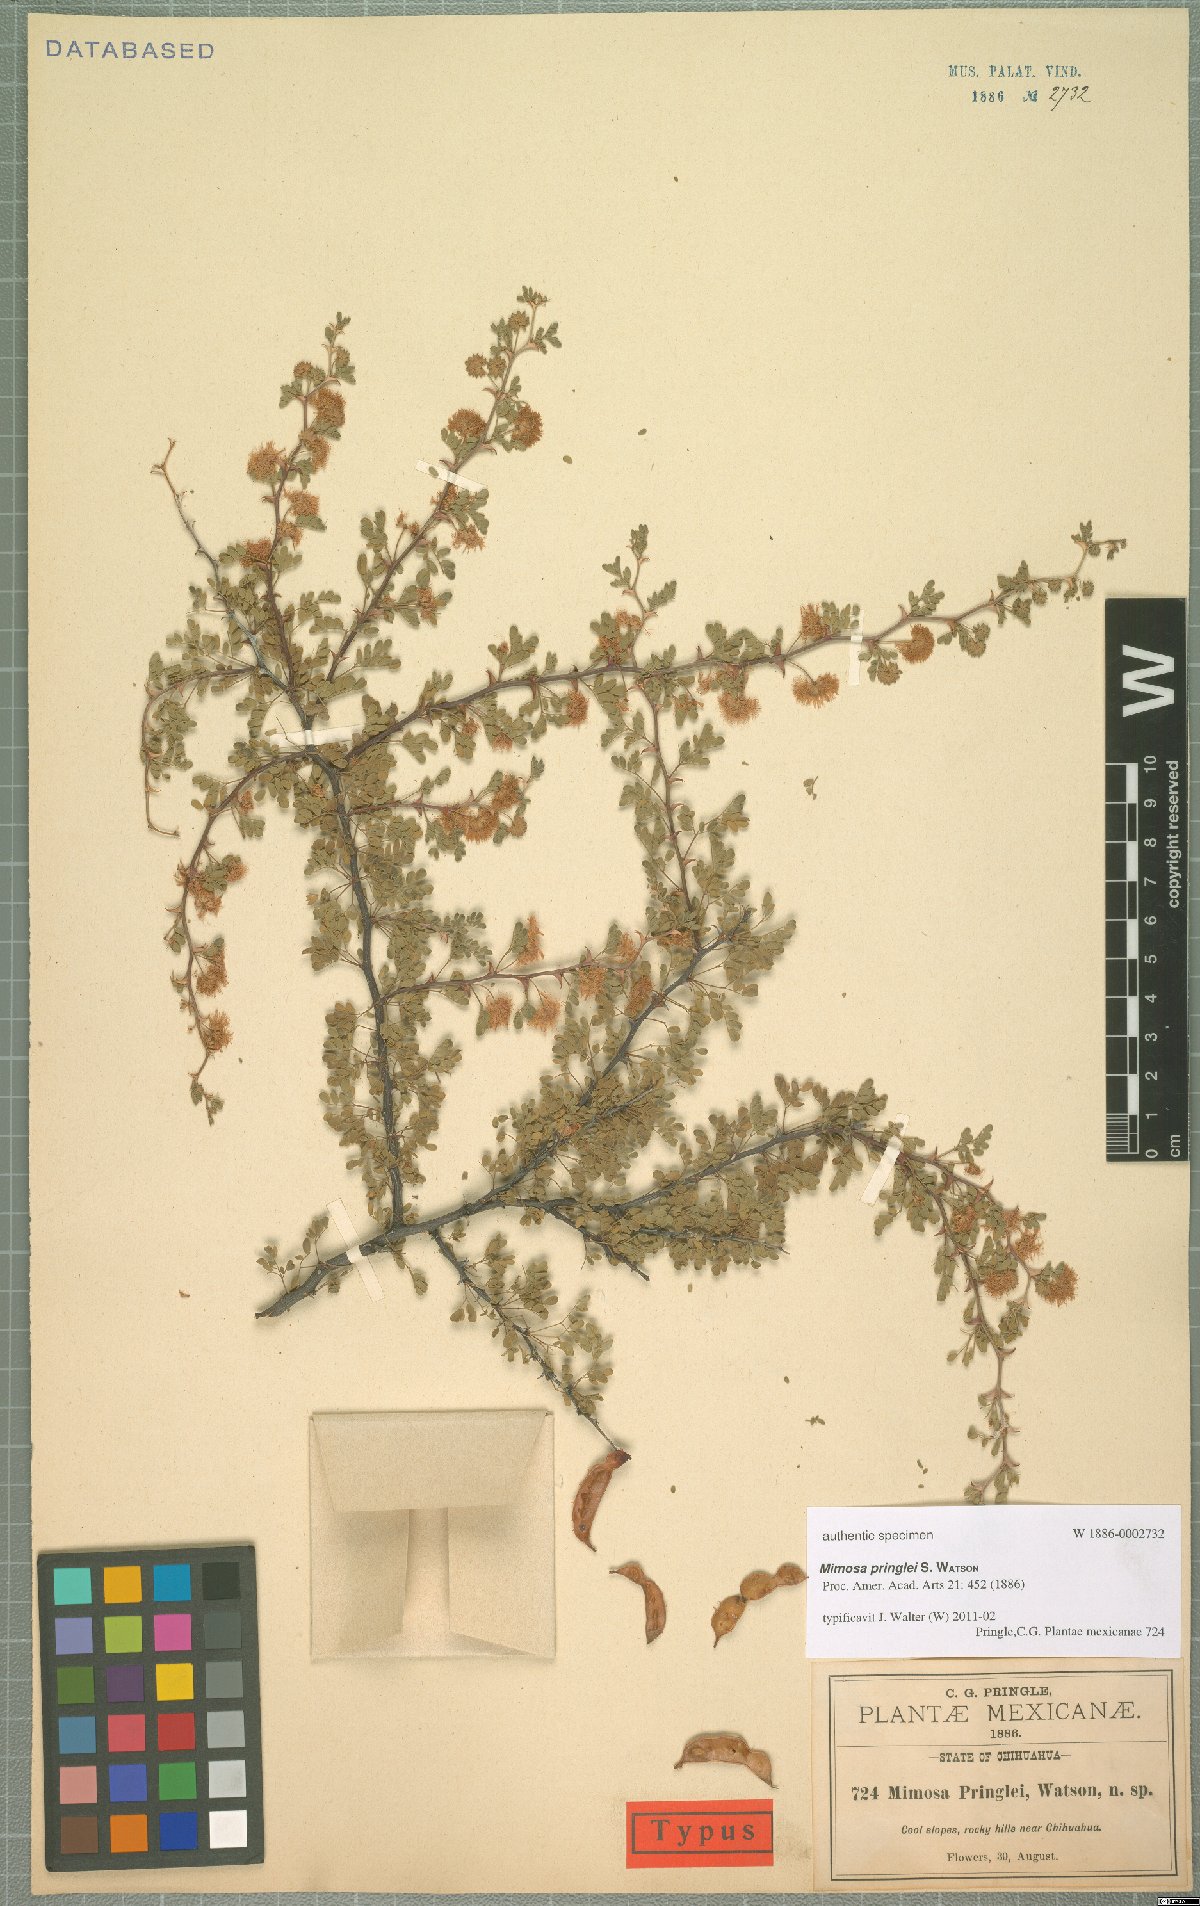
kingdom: Plantae
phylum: Tracheophyta
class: Magnoliopsida
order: Fabales
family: Fabaceae
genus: Mimosa
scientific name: Mimosa pringlei
